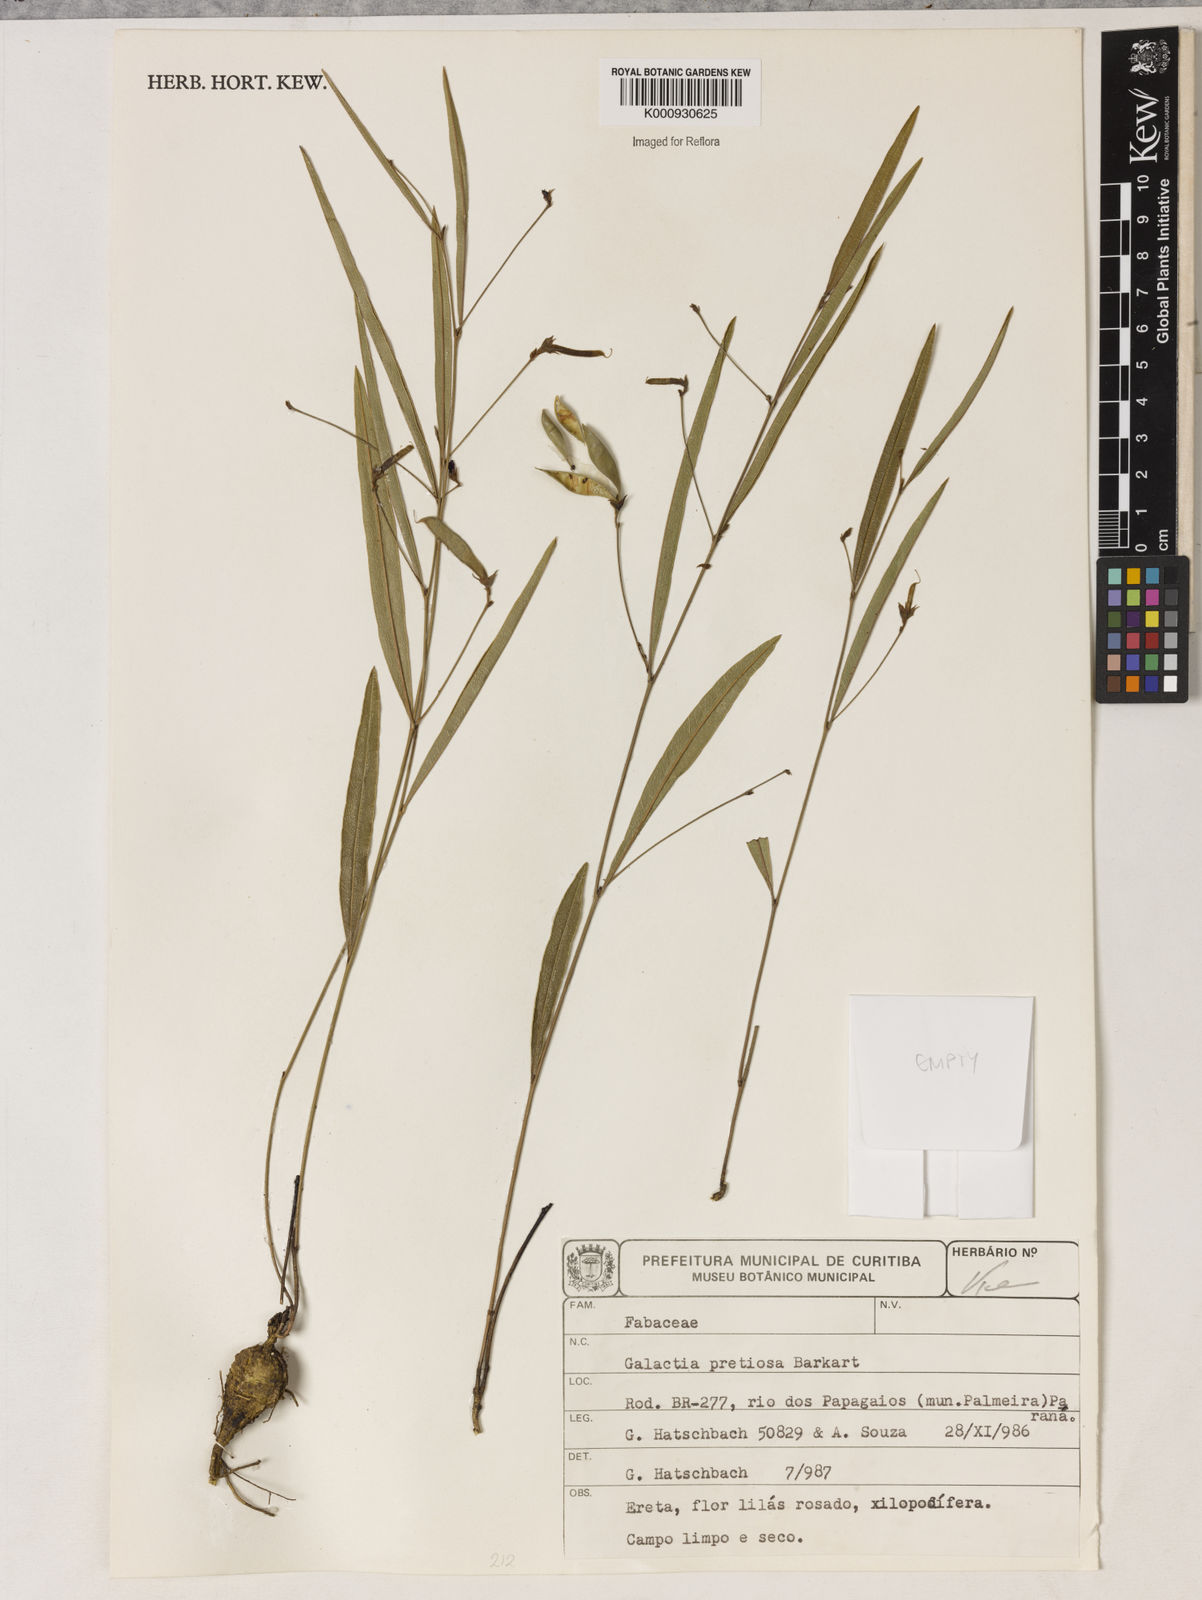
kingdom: Plantae
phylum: Tracheophyta
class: Magnoliopsida
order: Fabales
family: Fabaceae
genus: Nanogalactia
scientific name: Nanogalactia pretiosa
